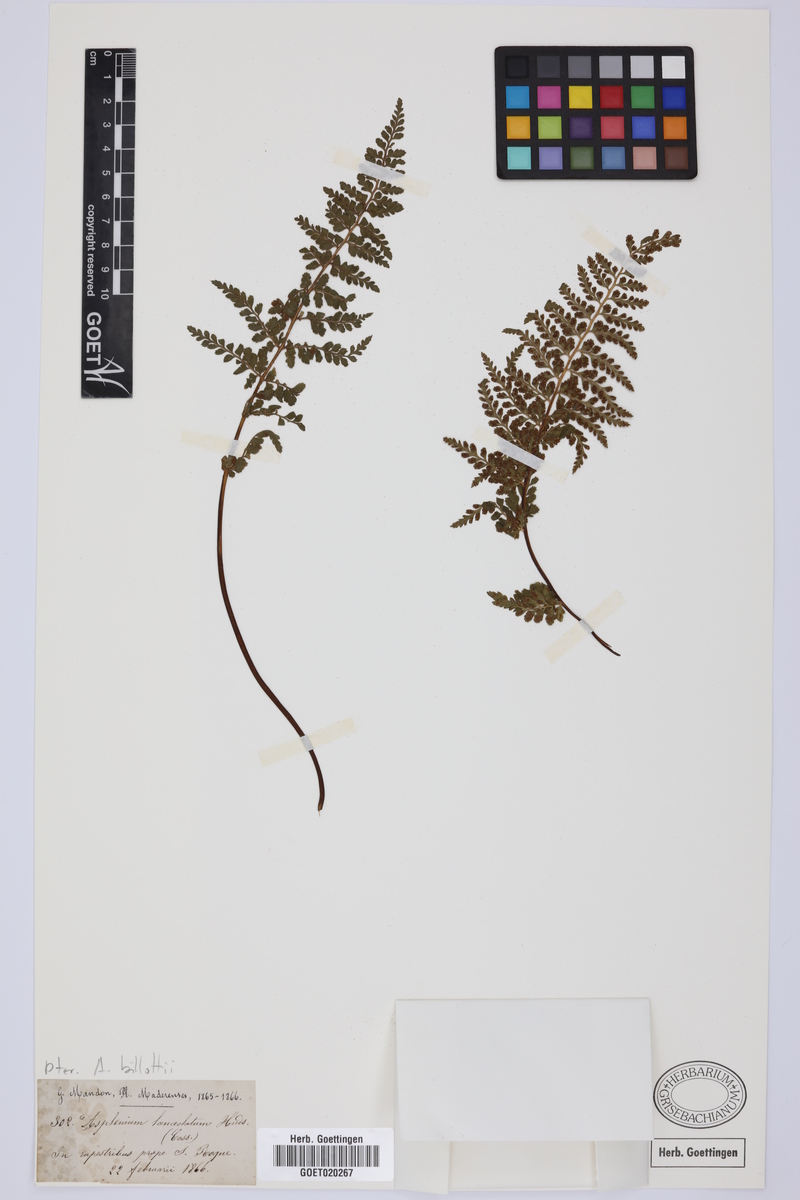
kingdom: Plantae
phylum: Tracheophyta
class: Polypodiopsida
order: Polypodiales
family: Aspleniaceae
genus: Asplenium
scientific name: Asplenium obovatum
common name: Lanceolate spleenwort
